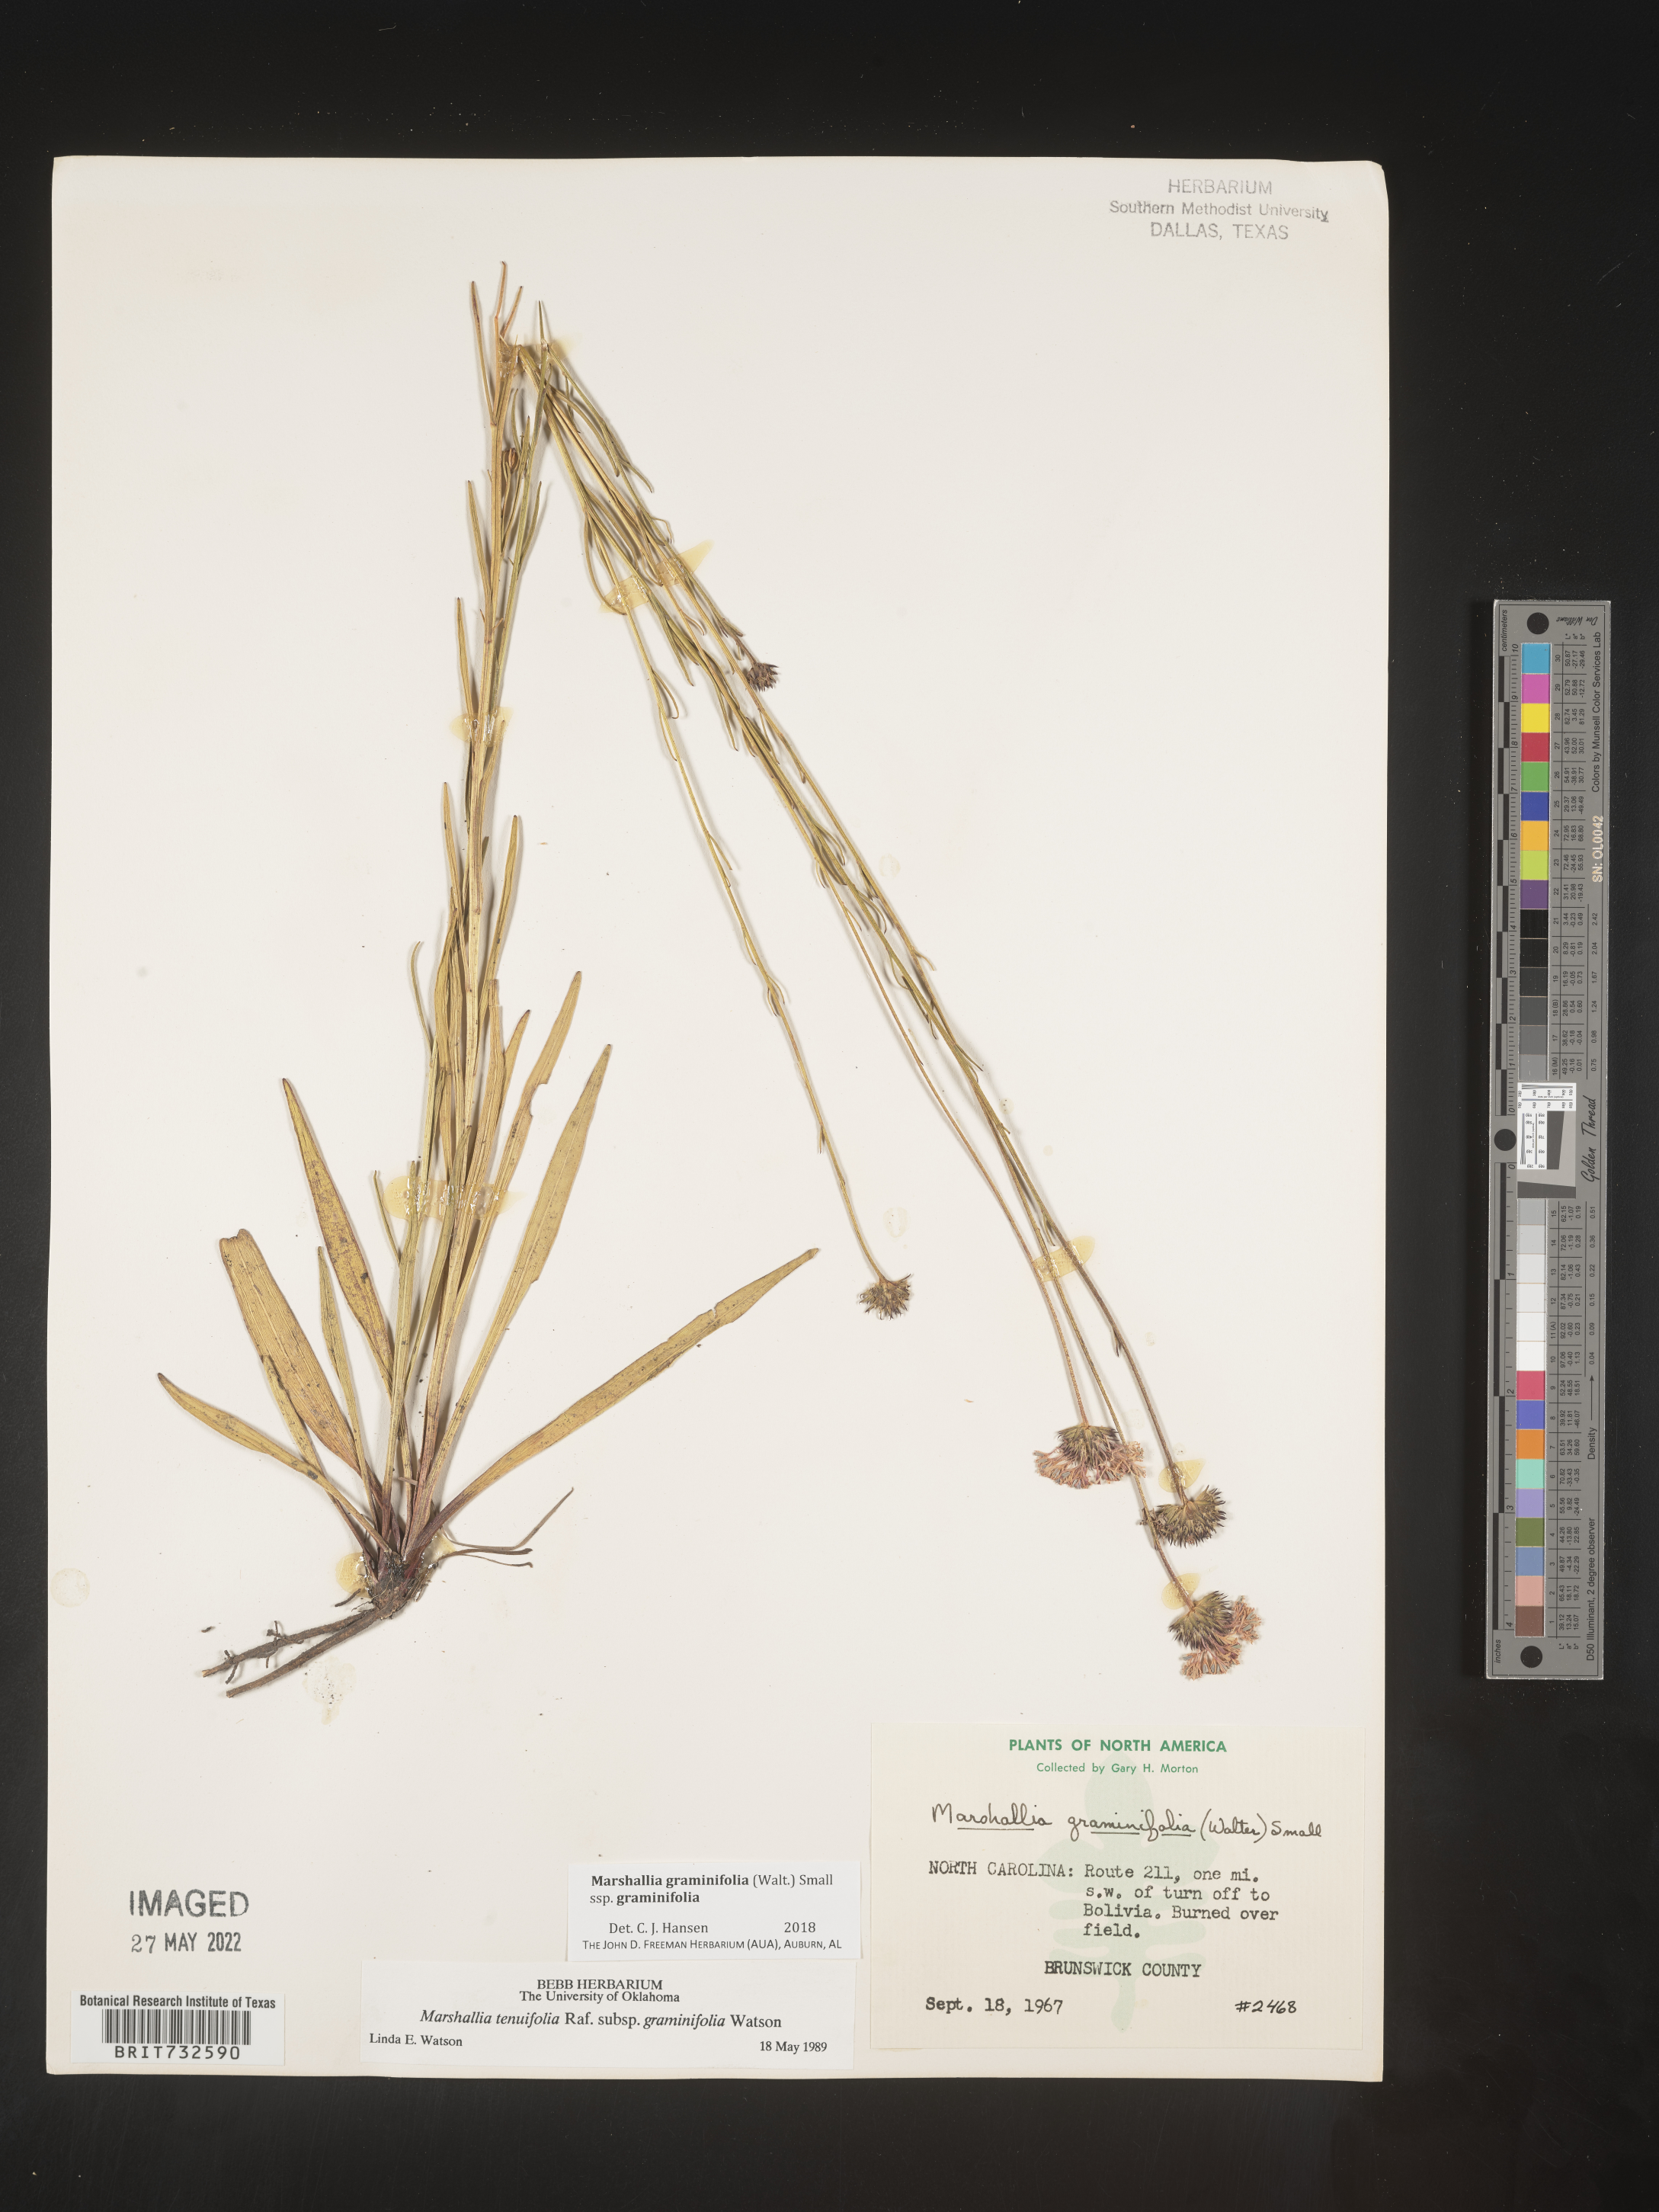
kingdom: Plantae
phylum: Tracheophyta
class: Magnoliopsida
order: Asterales
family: Asteraceae
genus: Marshallia
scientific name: Marshallia graminifolia
